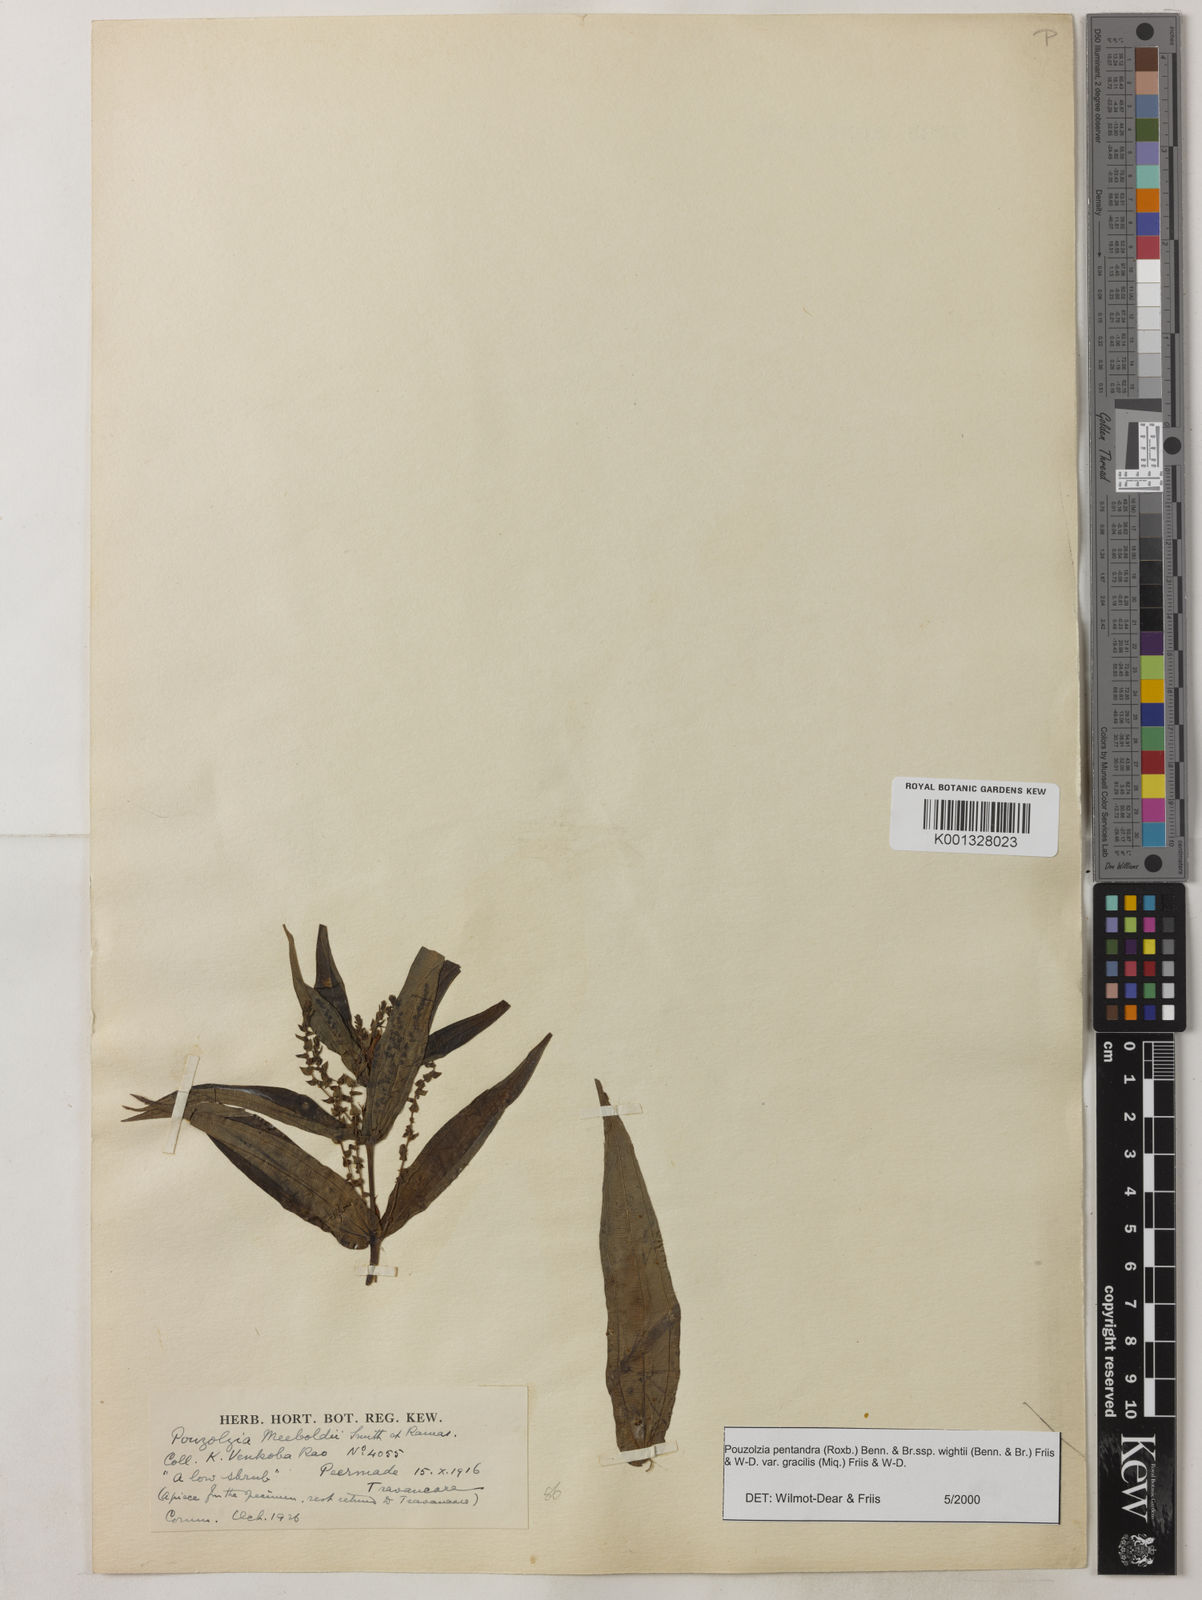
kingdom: Plantae
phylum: Tracheophyta
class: Magnoliopsida
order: Rosales
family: Urticaceae
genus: Gonostegia
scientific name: Gonostegia pentandra
